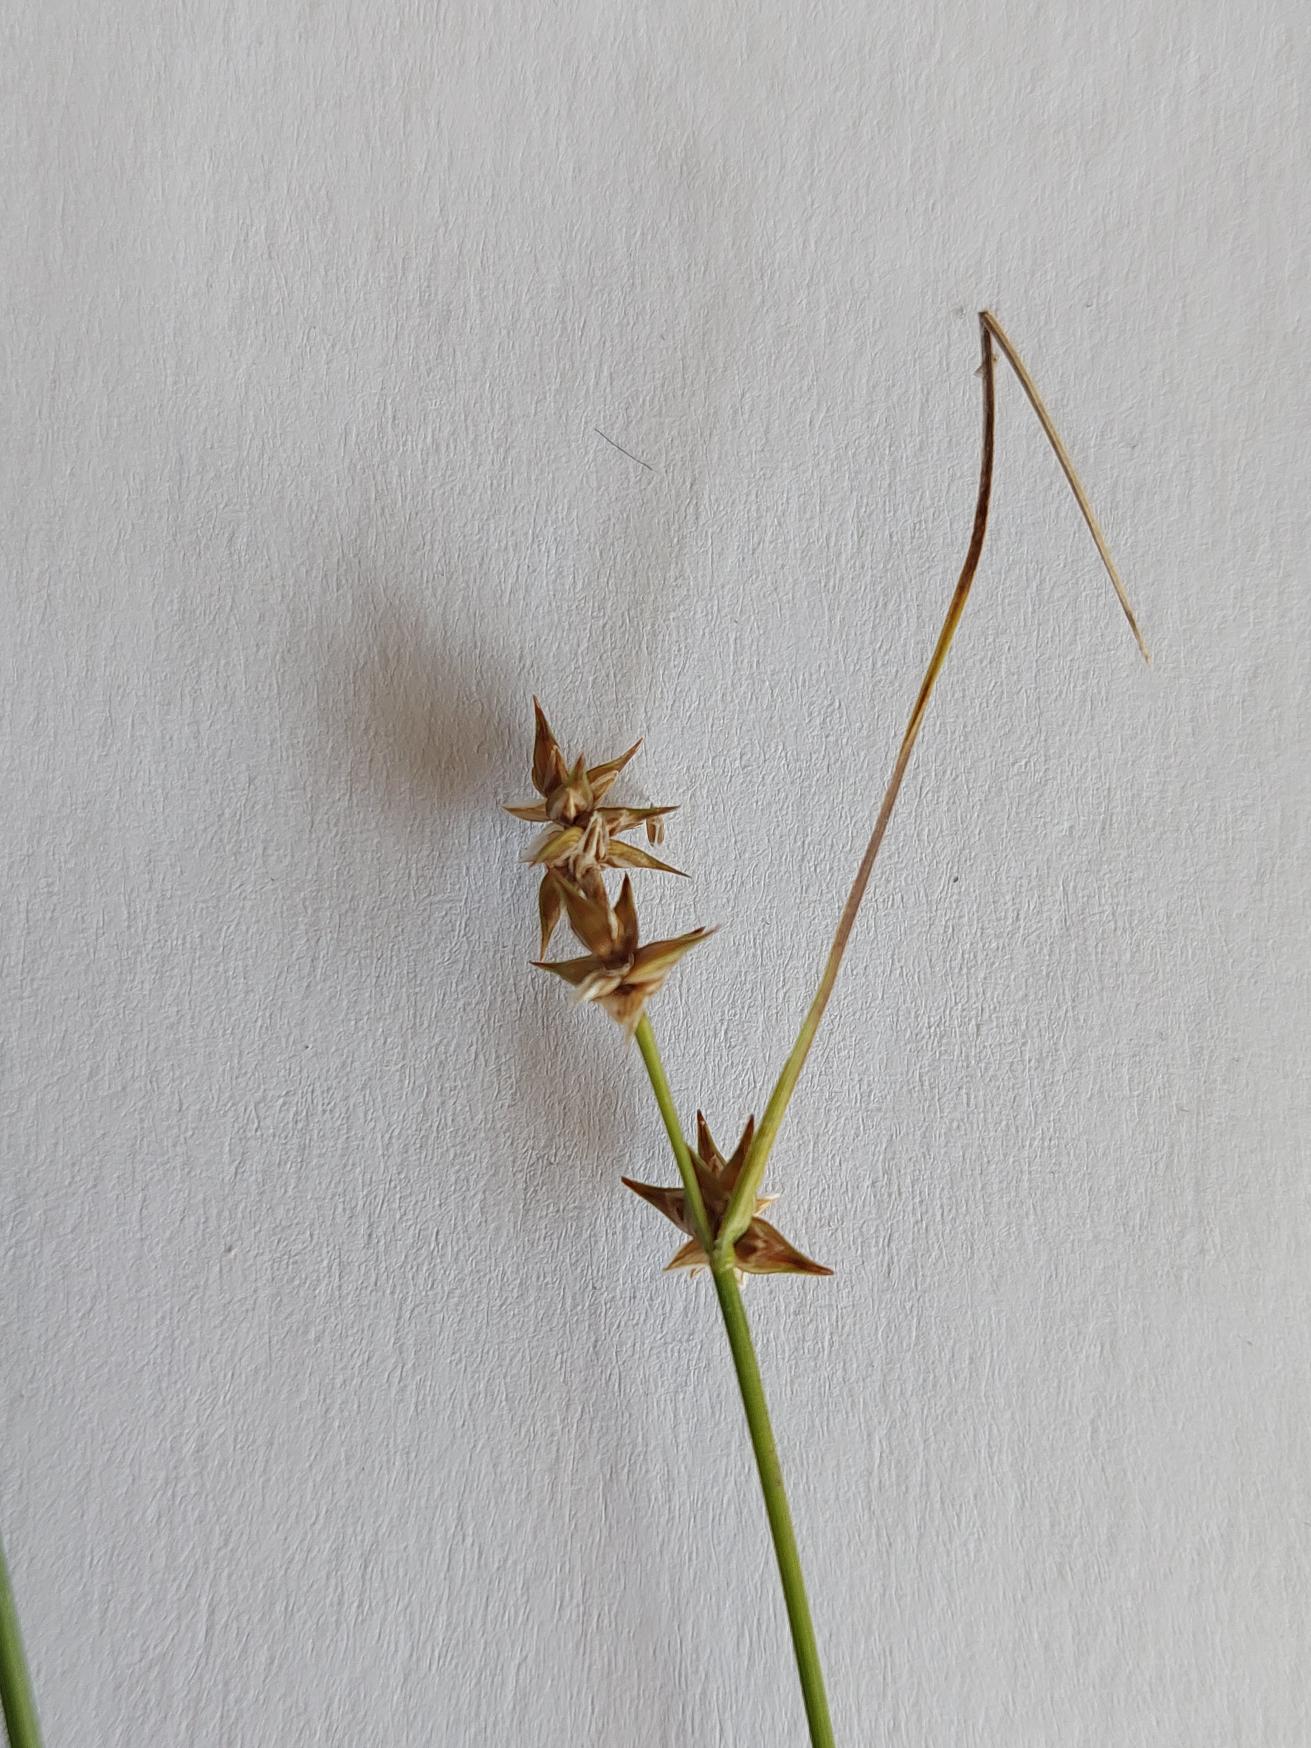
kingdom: Plantae
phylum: Tracheophyta
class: Liliopsida
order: Poales
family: Cyperaceae
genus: Carex
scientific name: Carex divulsa
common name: Mellembrudt star
